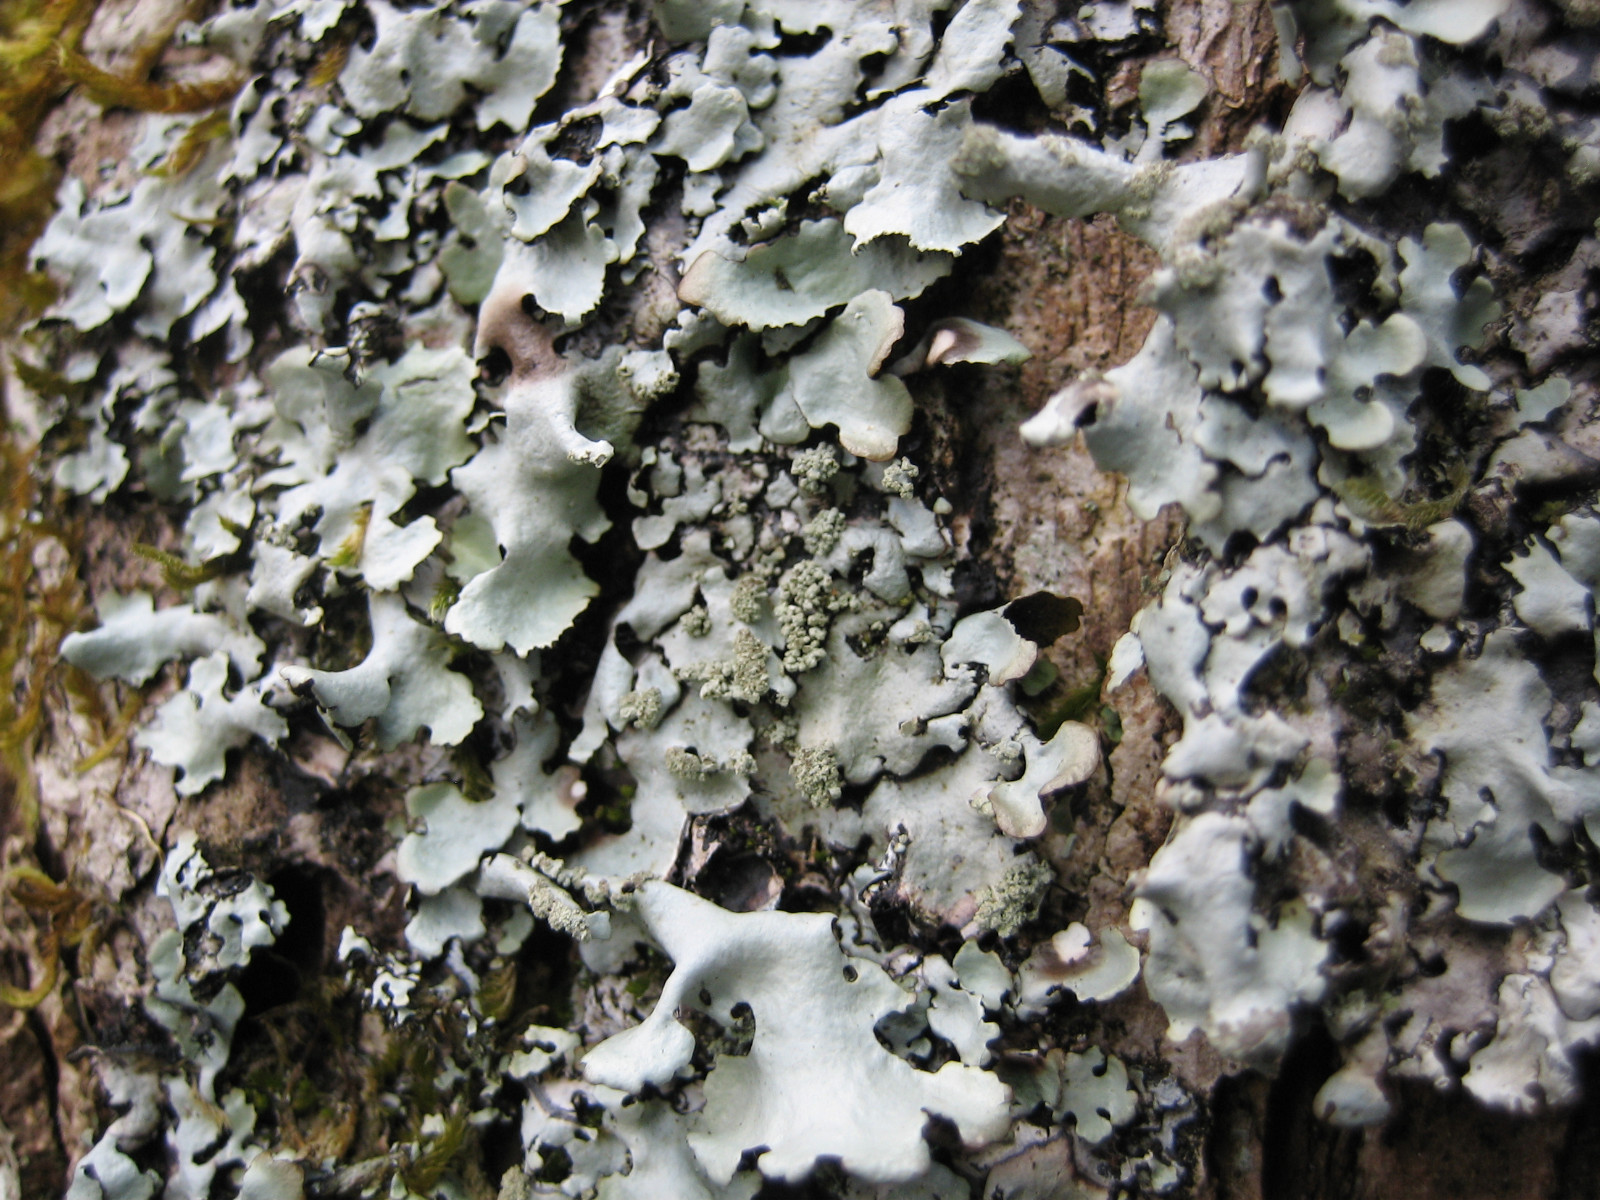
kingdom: Fungi
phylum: Ascomycota
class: Lecanoromycetes
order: Lecanorales
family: Parmeliaceae
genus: Hypotrachyna
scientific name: Hypotrachyna afrorevoluta
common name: kyst-skållav
